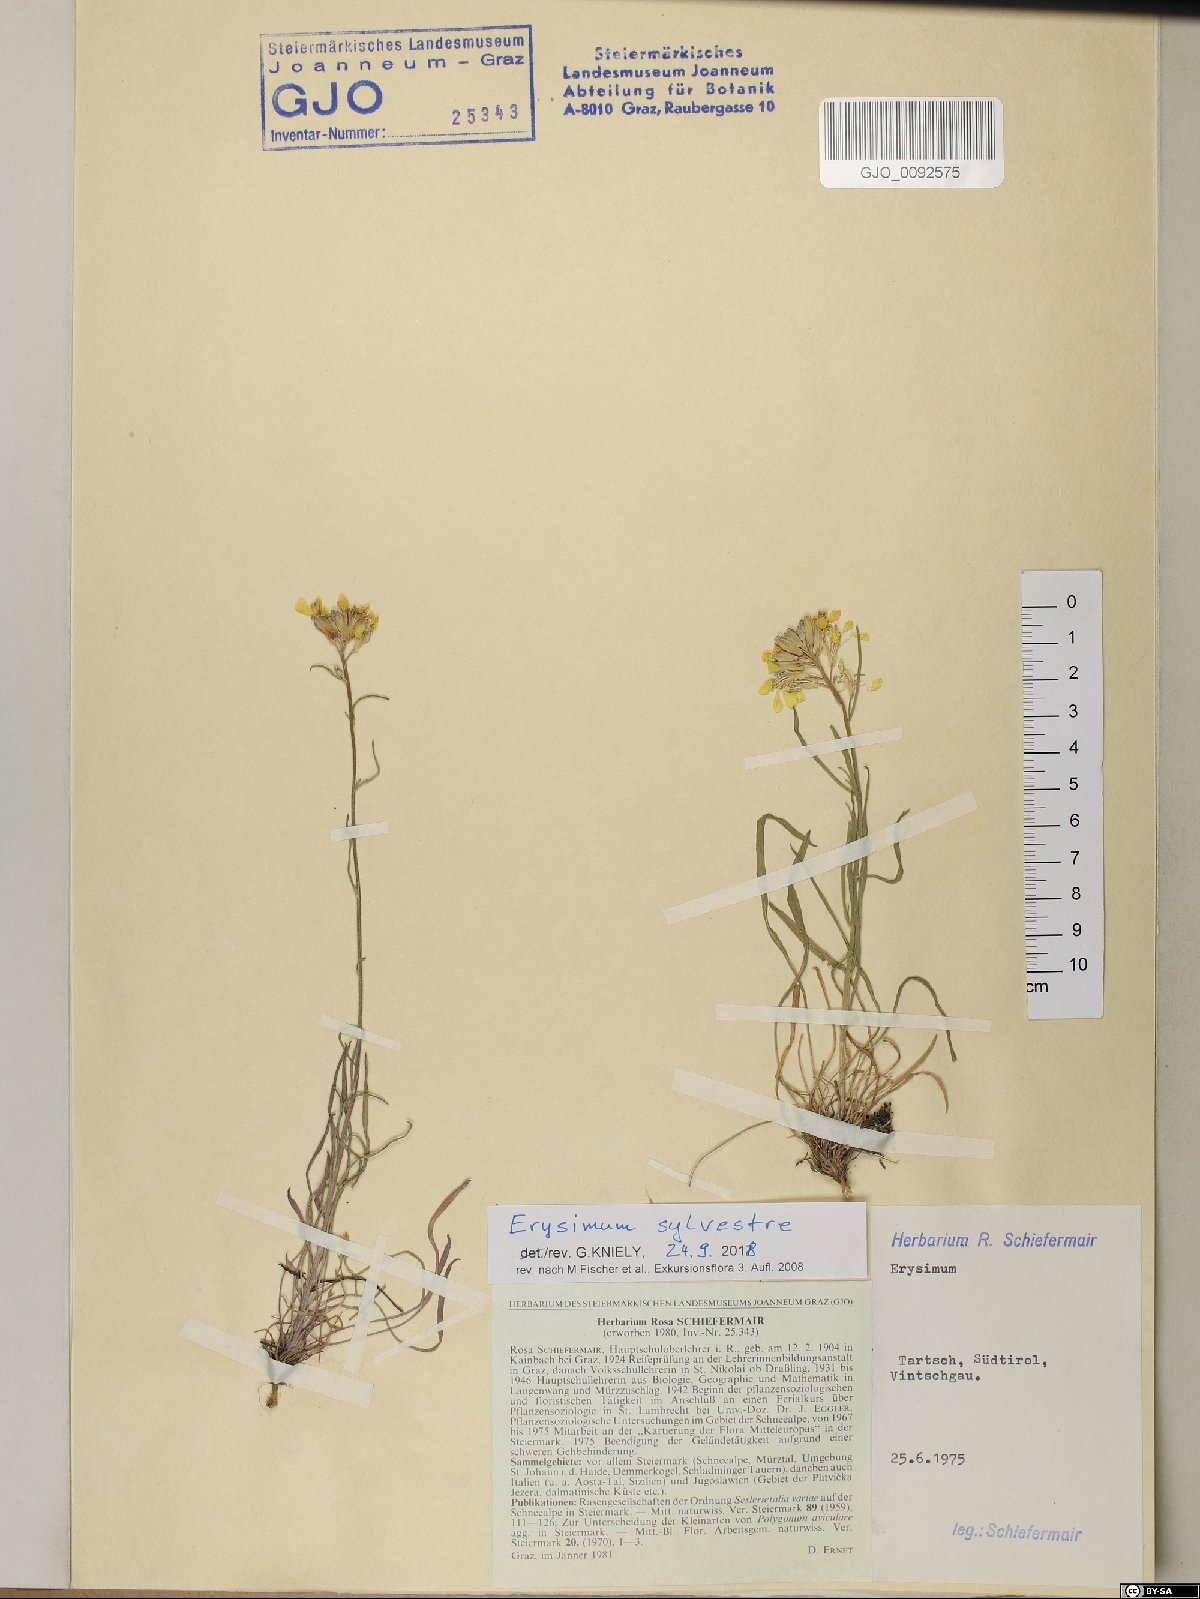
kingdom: Plantae
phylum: Tracheophyta
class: Magnoliopsida
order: Brassicales
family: Brassicaceae
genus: Erysimum
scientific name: Erysimum sylvestre
